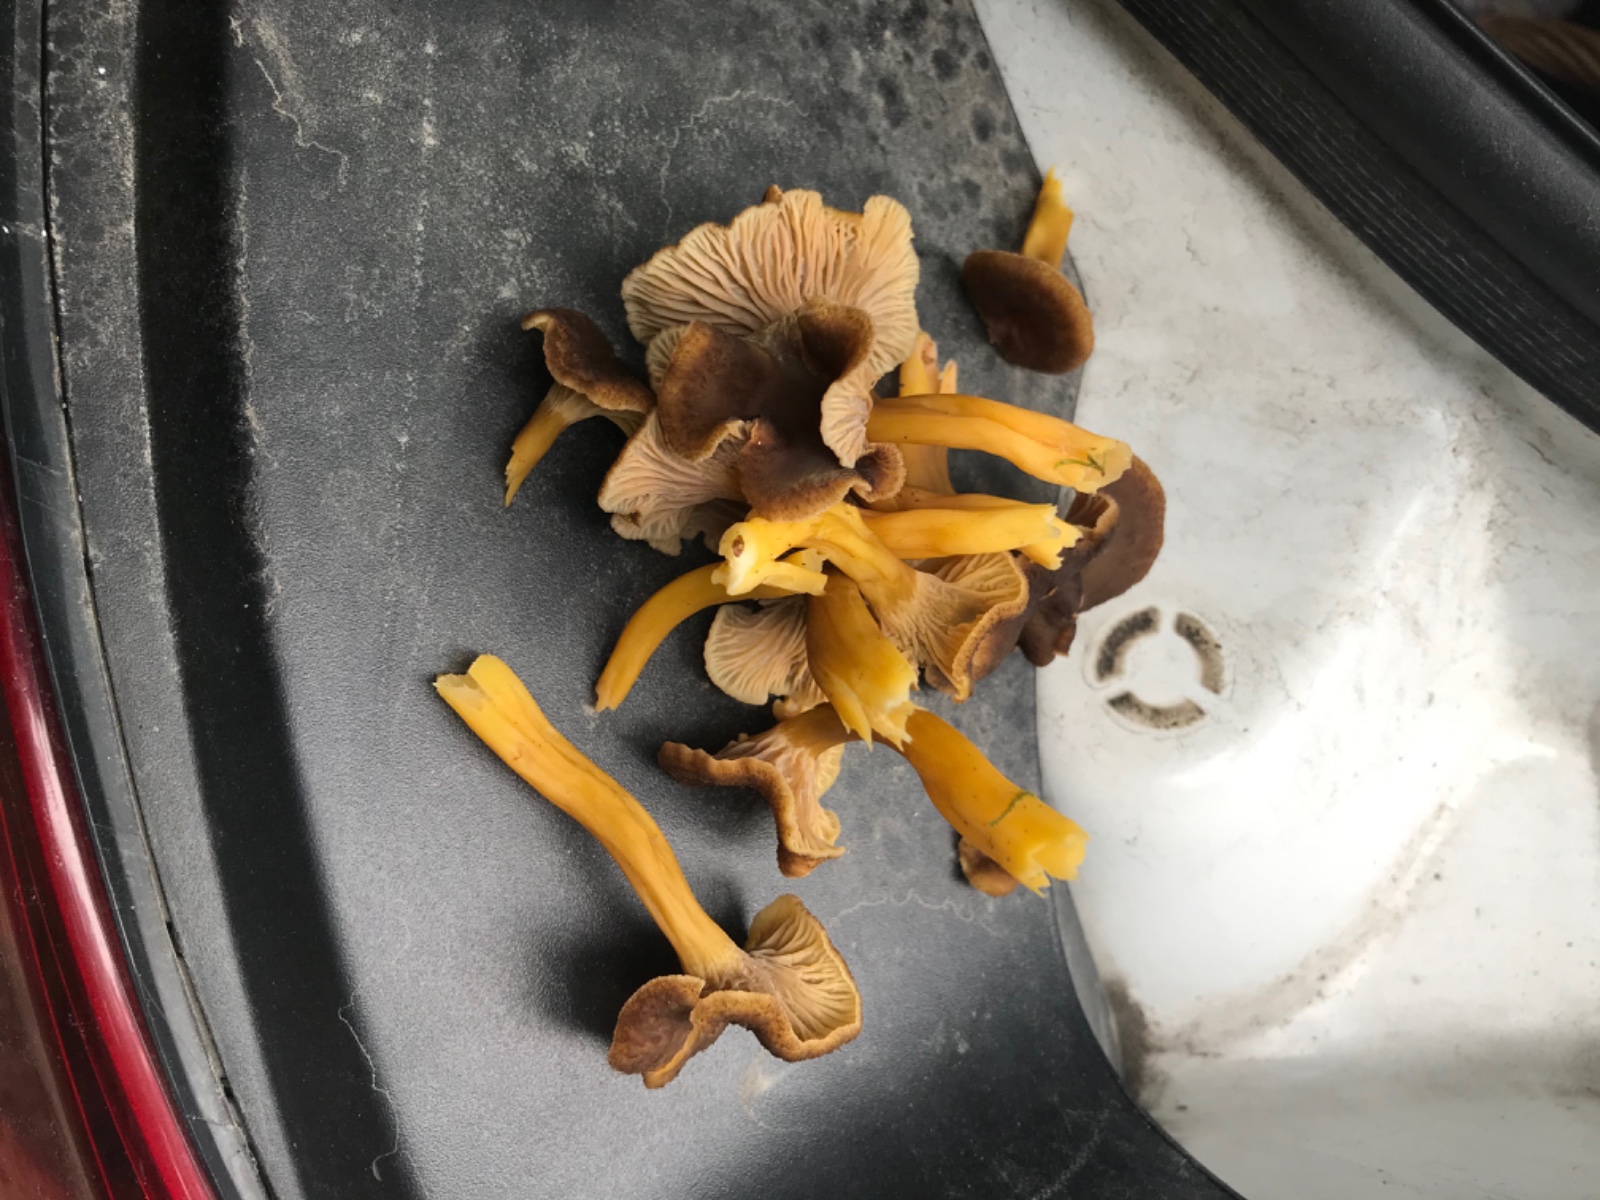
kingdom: Fungi
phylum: Basidiomycota
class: Agaricomycetes
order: Cantharellales
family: Hydnaceae
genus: Craterellus
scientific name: Craterellus tubaeformis
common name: tragt-kantarel
